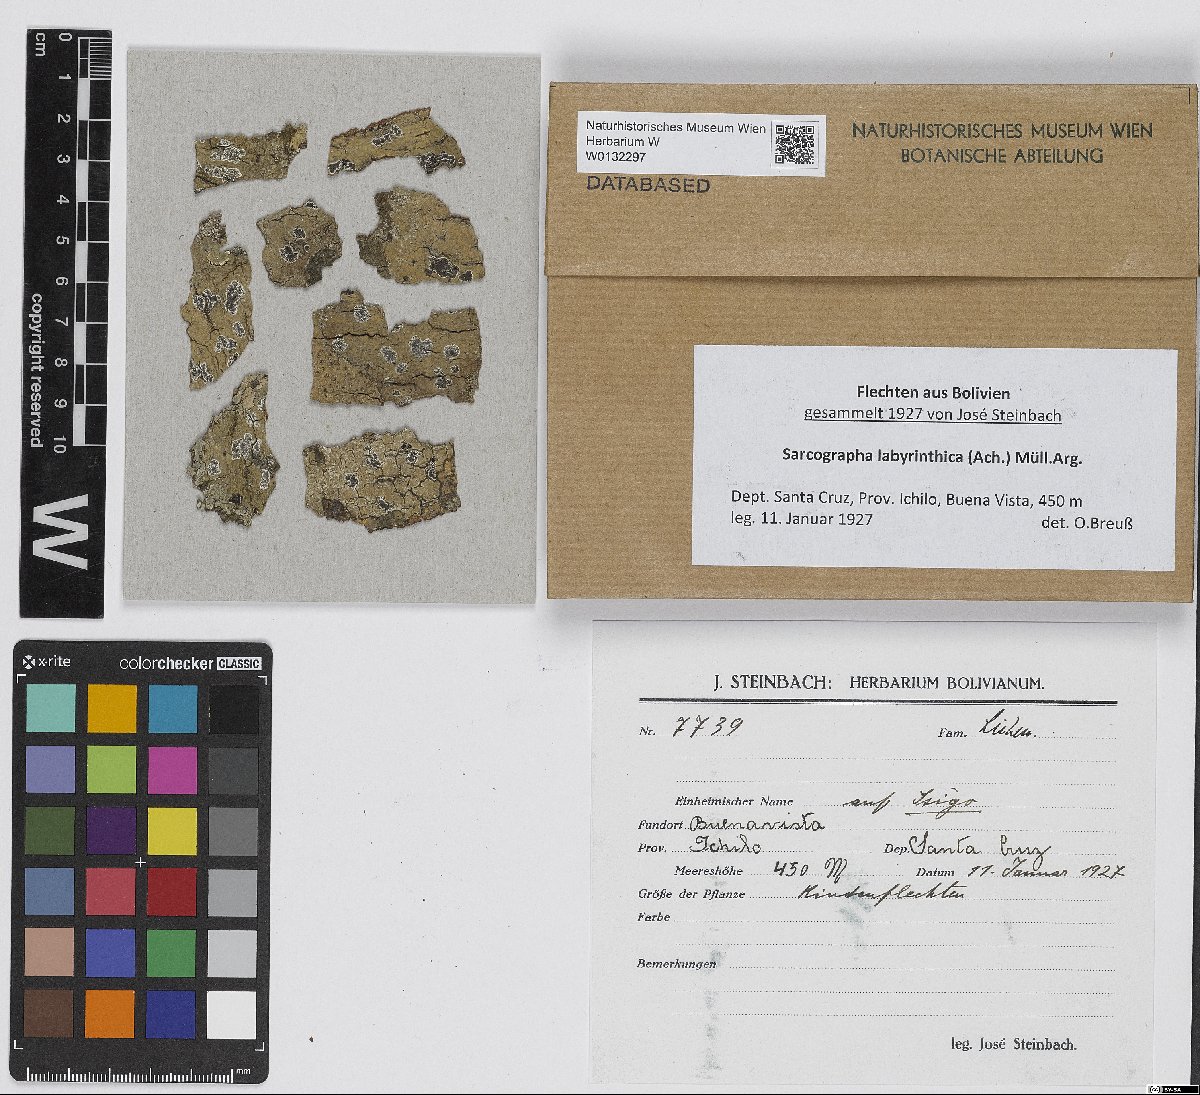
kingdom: Fungi
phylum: Ascomycota
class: Lecanoromycetes
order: Ostropales
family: Graphidaceae
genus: Sarcographa
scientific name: Sarcographa labyrinthica
